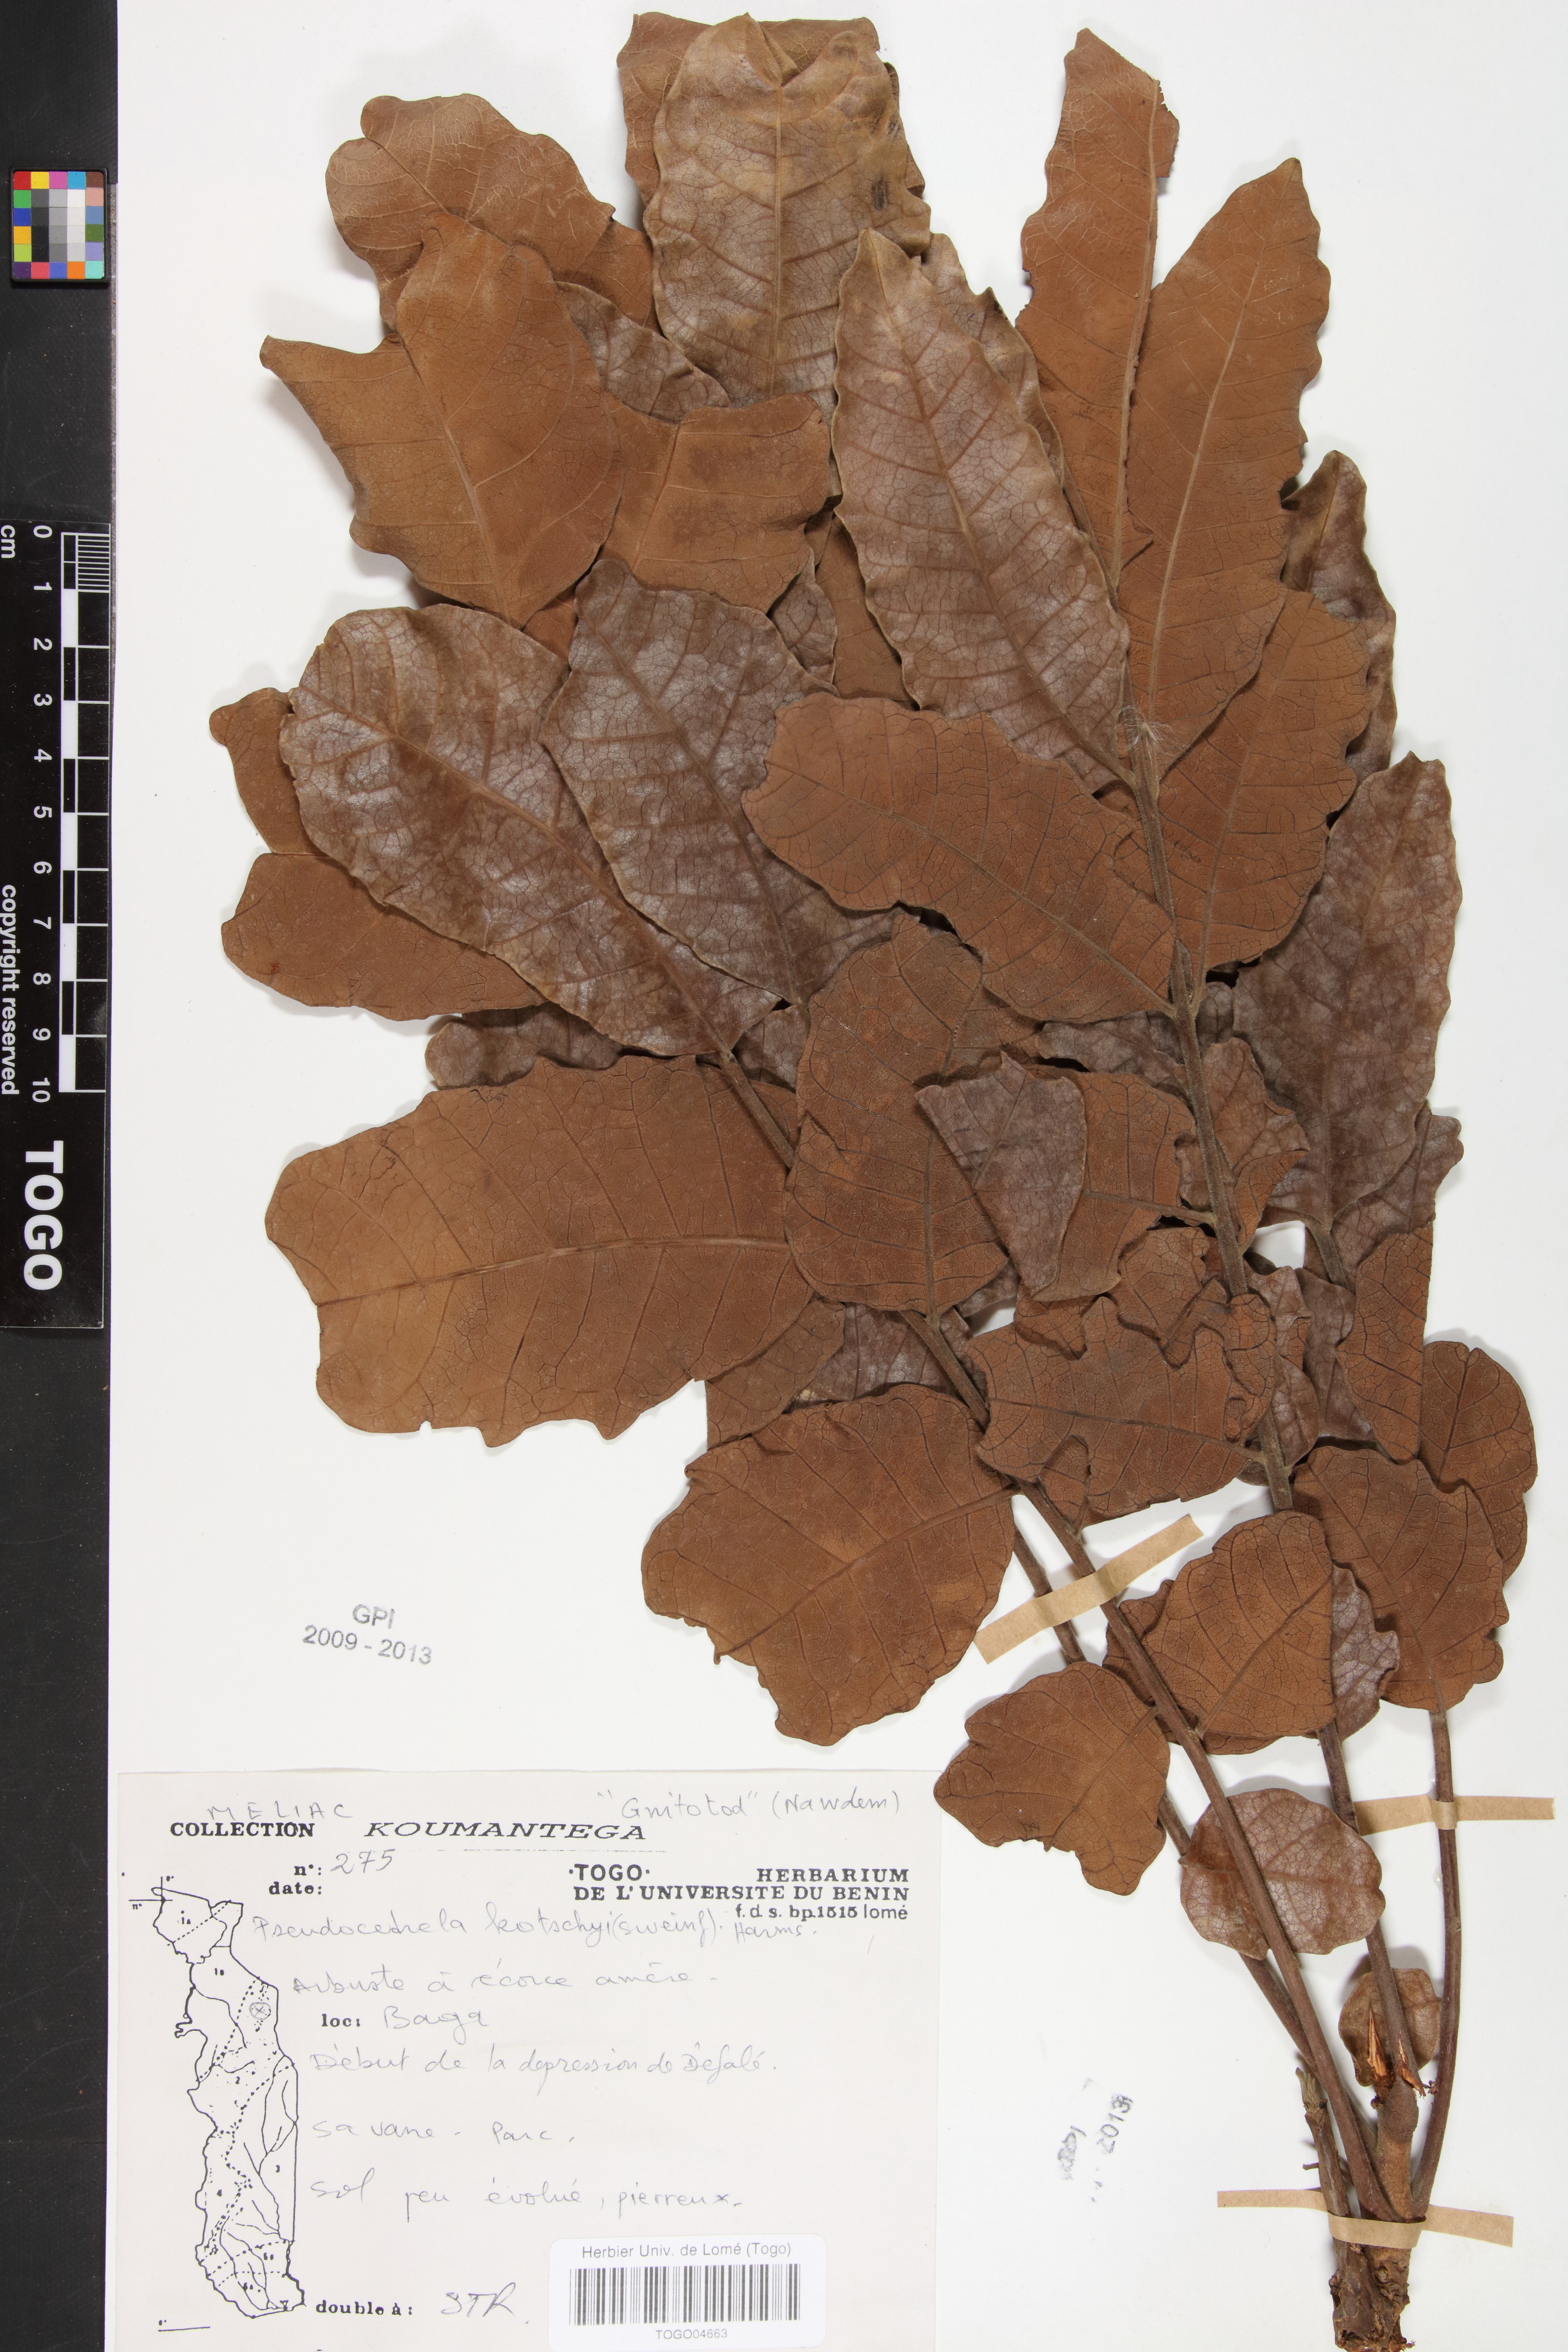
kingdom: Plantae
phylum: Tracheophyta
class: Magnoliopsida
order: Sapindales
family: Meliaceae
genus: Pseudocedrela
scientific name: Pseudocedrela kotschyi
